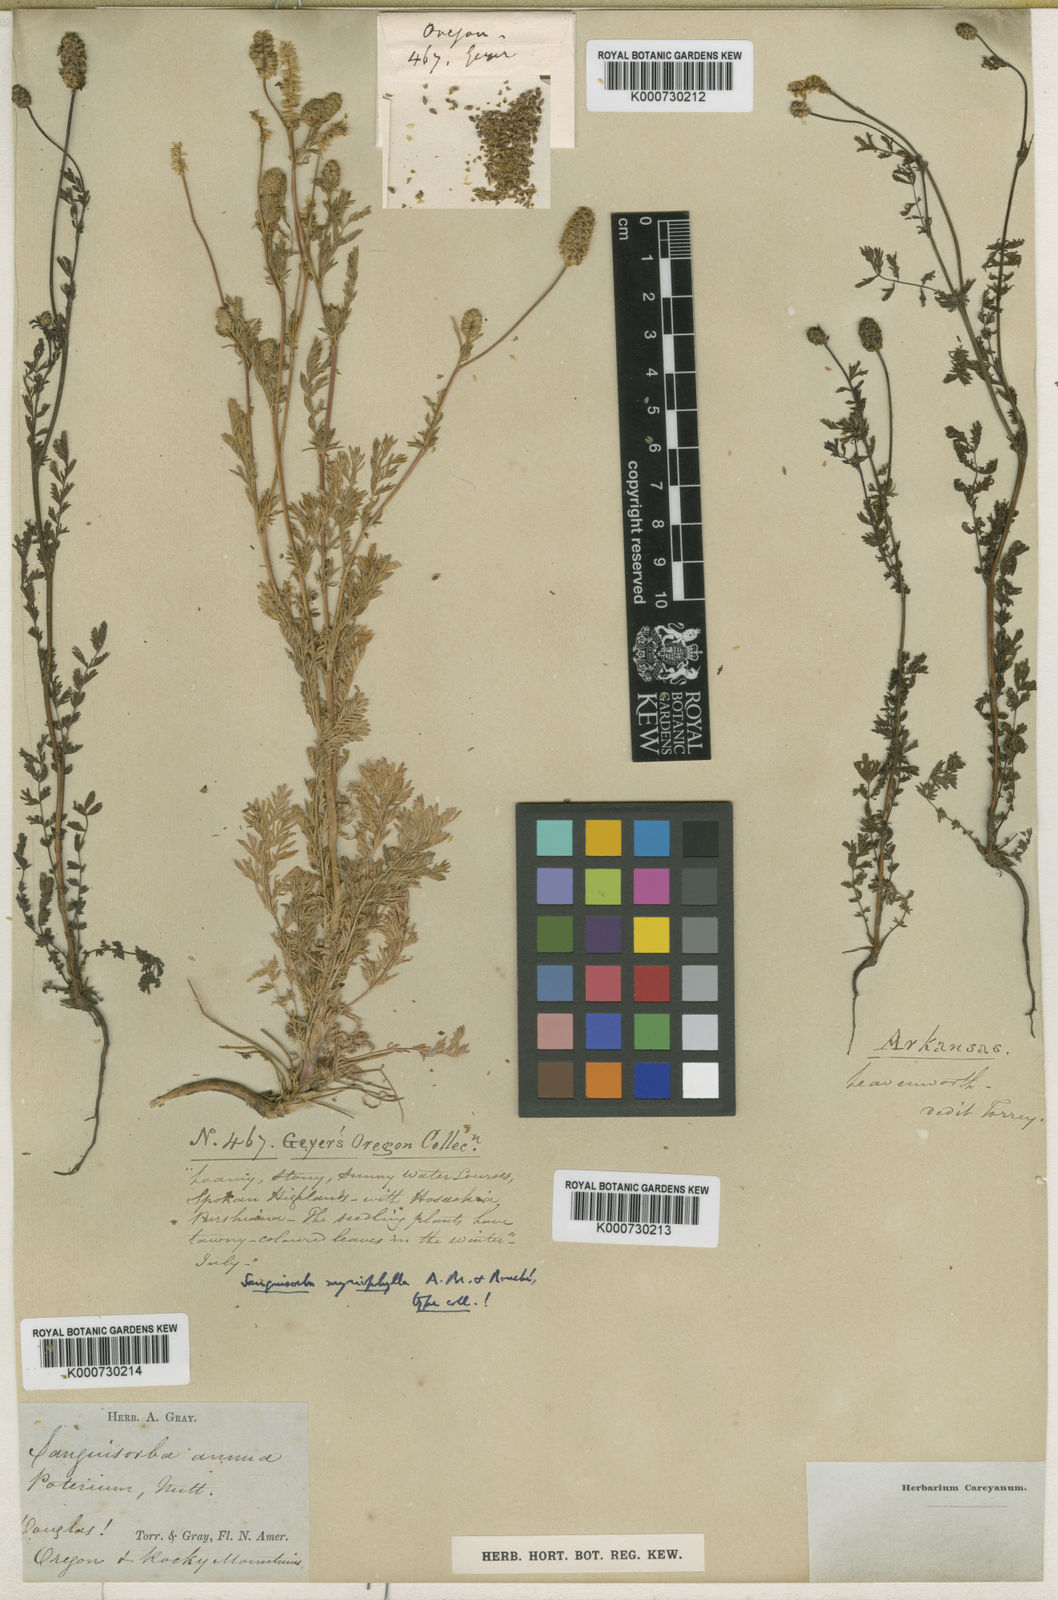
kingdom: Plantae
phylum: Tracheophyta
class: Magnoliopsida
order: Rosales
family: Rosaceae
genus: Sanguisorba
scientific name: Sanguisorba
